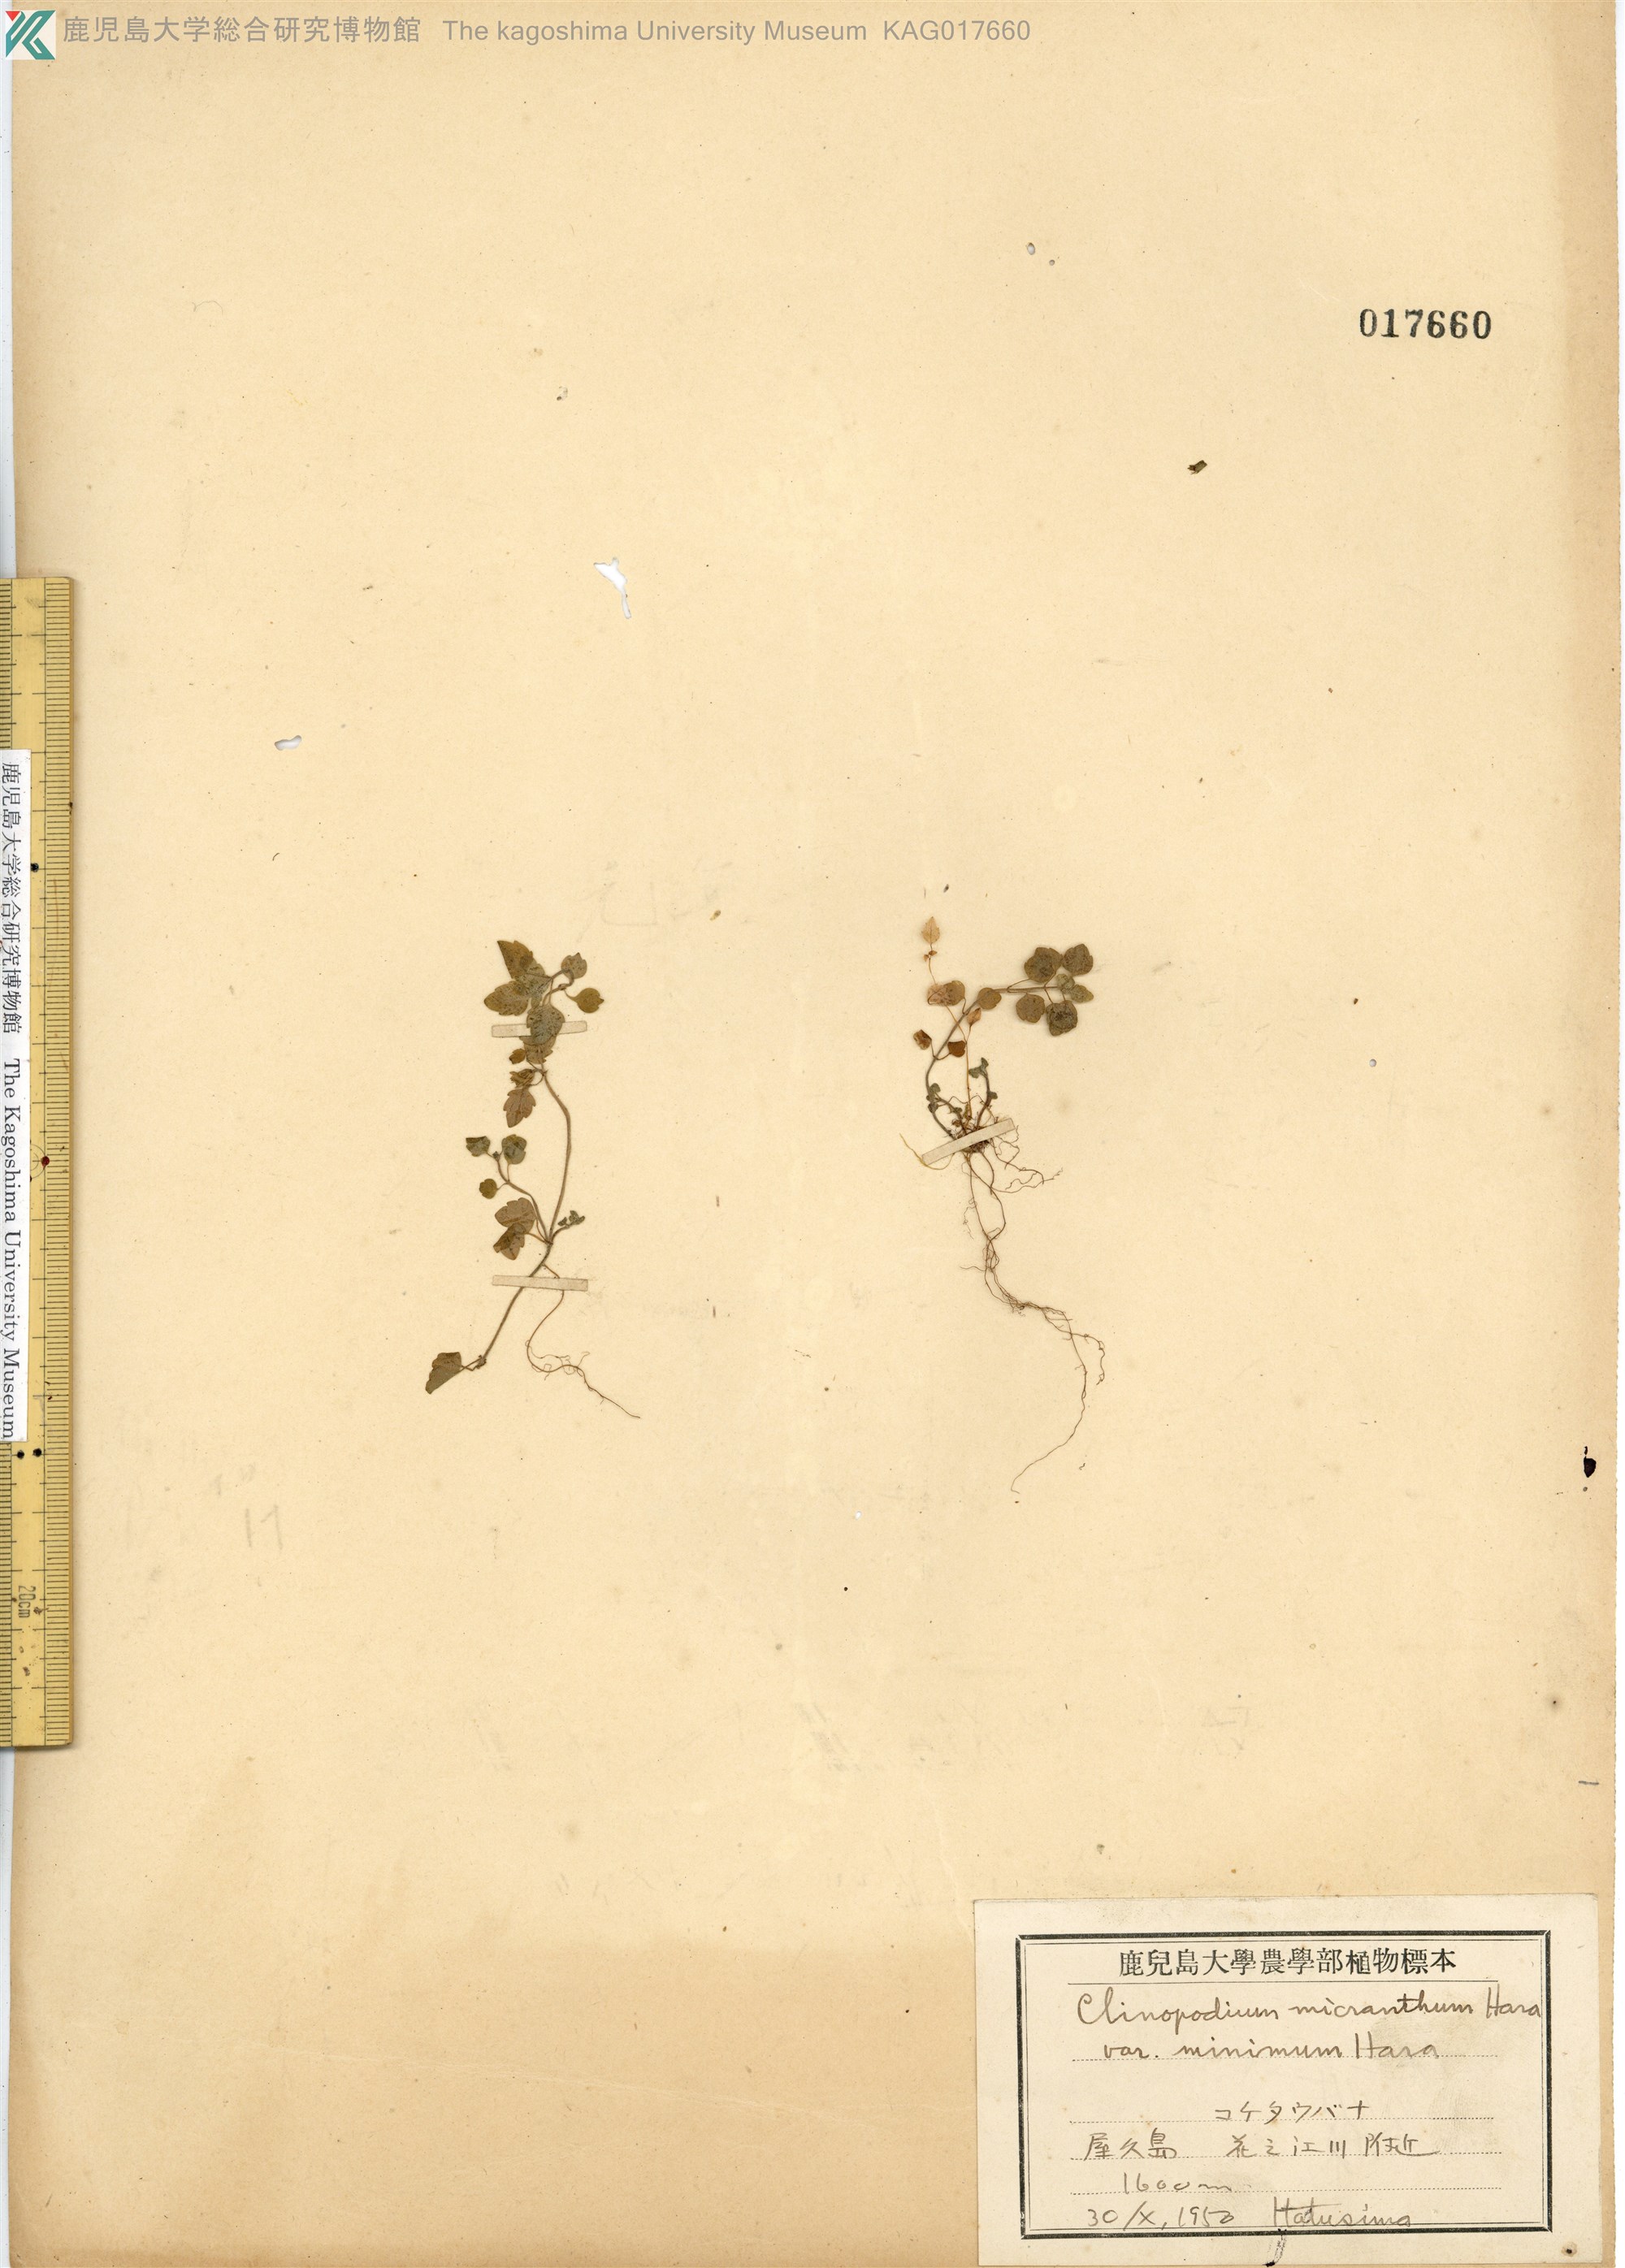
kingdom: Plantae
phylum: Tracheophyta
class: Magnoliopsida
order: Lamiales
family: Lamiaceae
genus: Clinopodium
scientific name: Clinopodium multicaule
